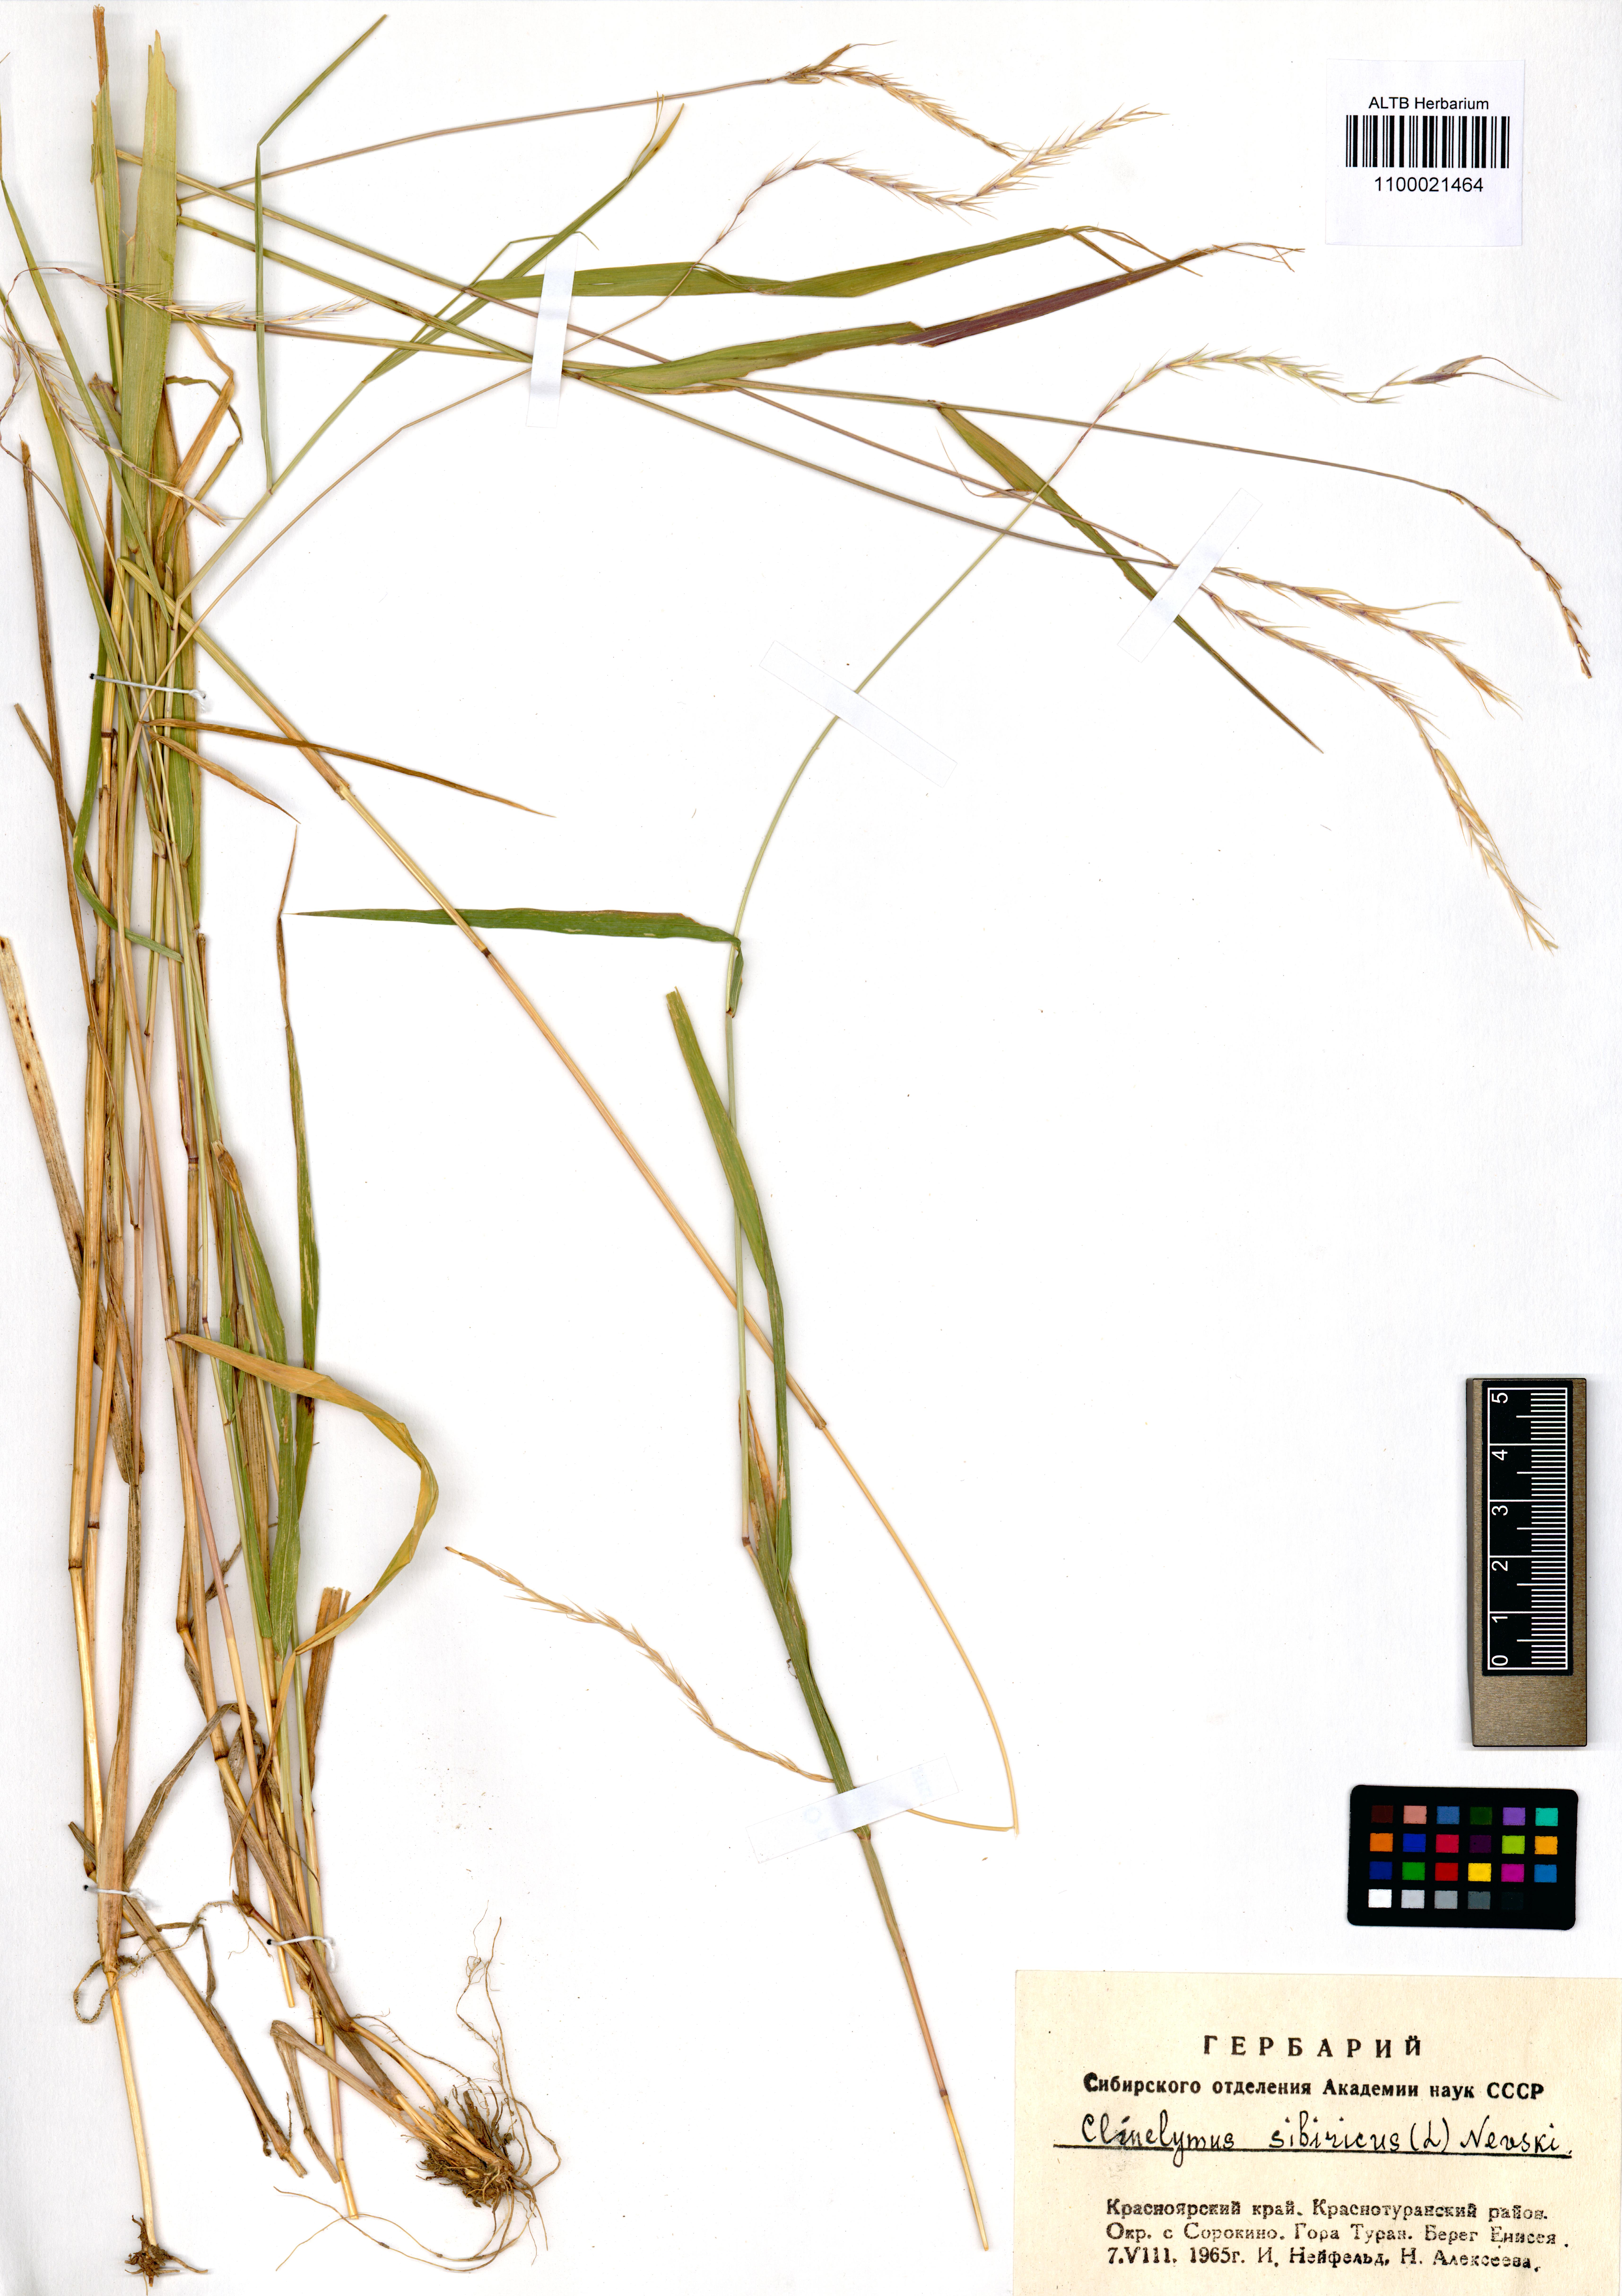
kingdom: Plantae
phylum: Tracheophyta
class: Liliopsida
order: Poales
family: Poaceae
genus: Elymus
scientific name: Elymus sibiricus
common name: Siberian wildrye
